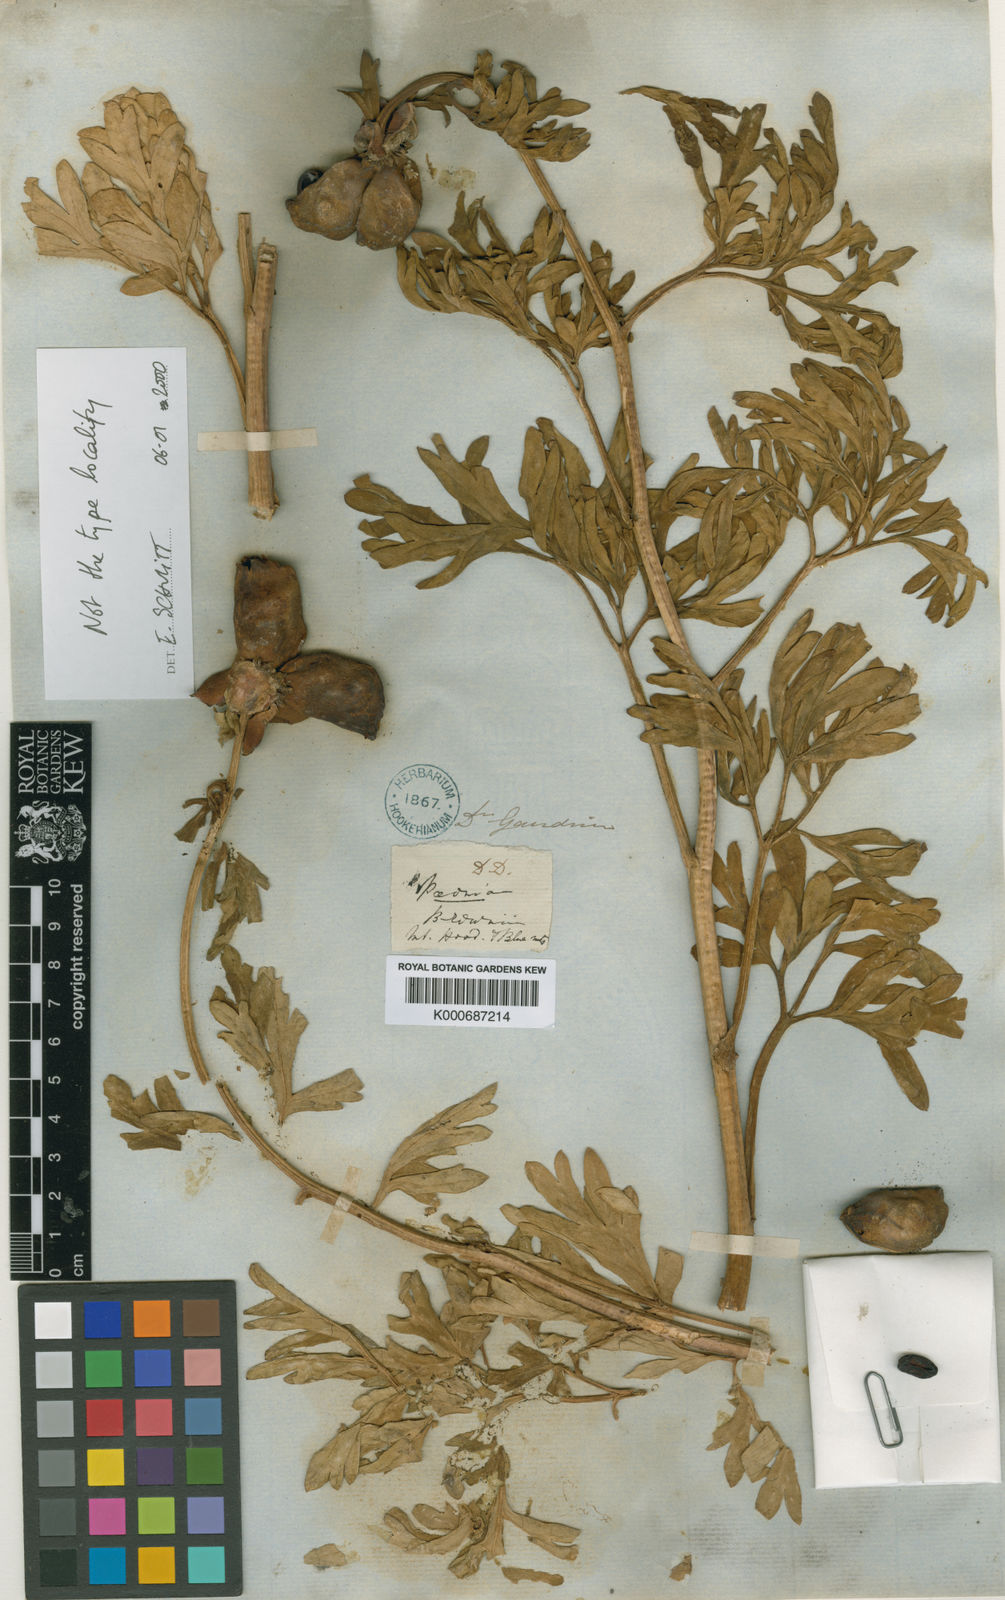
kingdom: Plantae
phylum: Tracheophyta
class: Magnoliopsida
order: Saxifragales
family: Paeoniaceae
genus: Paeonia
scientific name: Paeonia brownii
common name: Brown's peony
